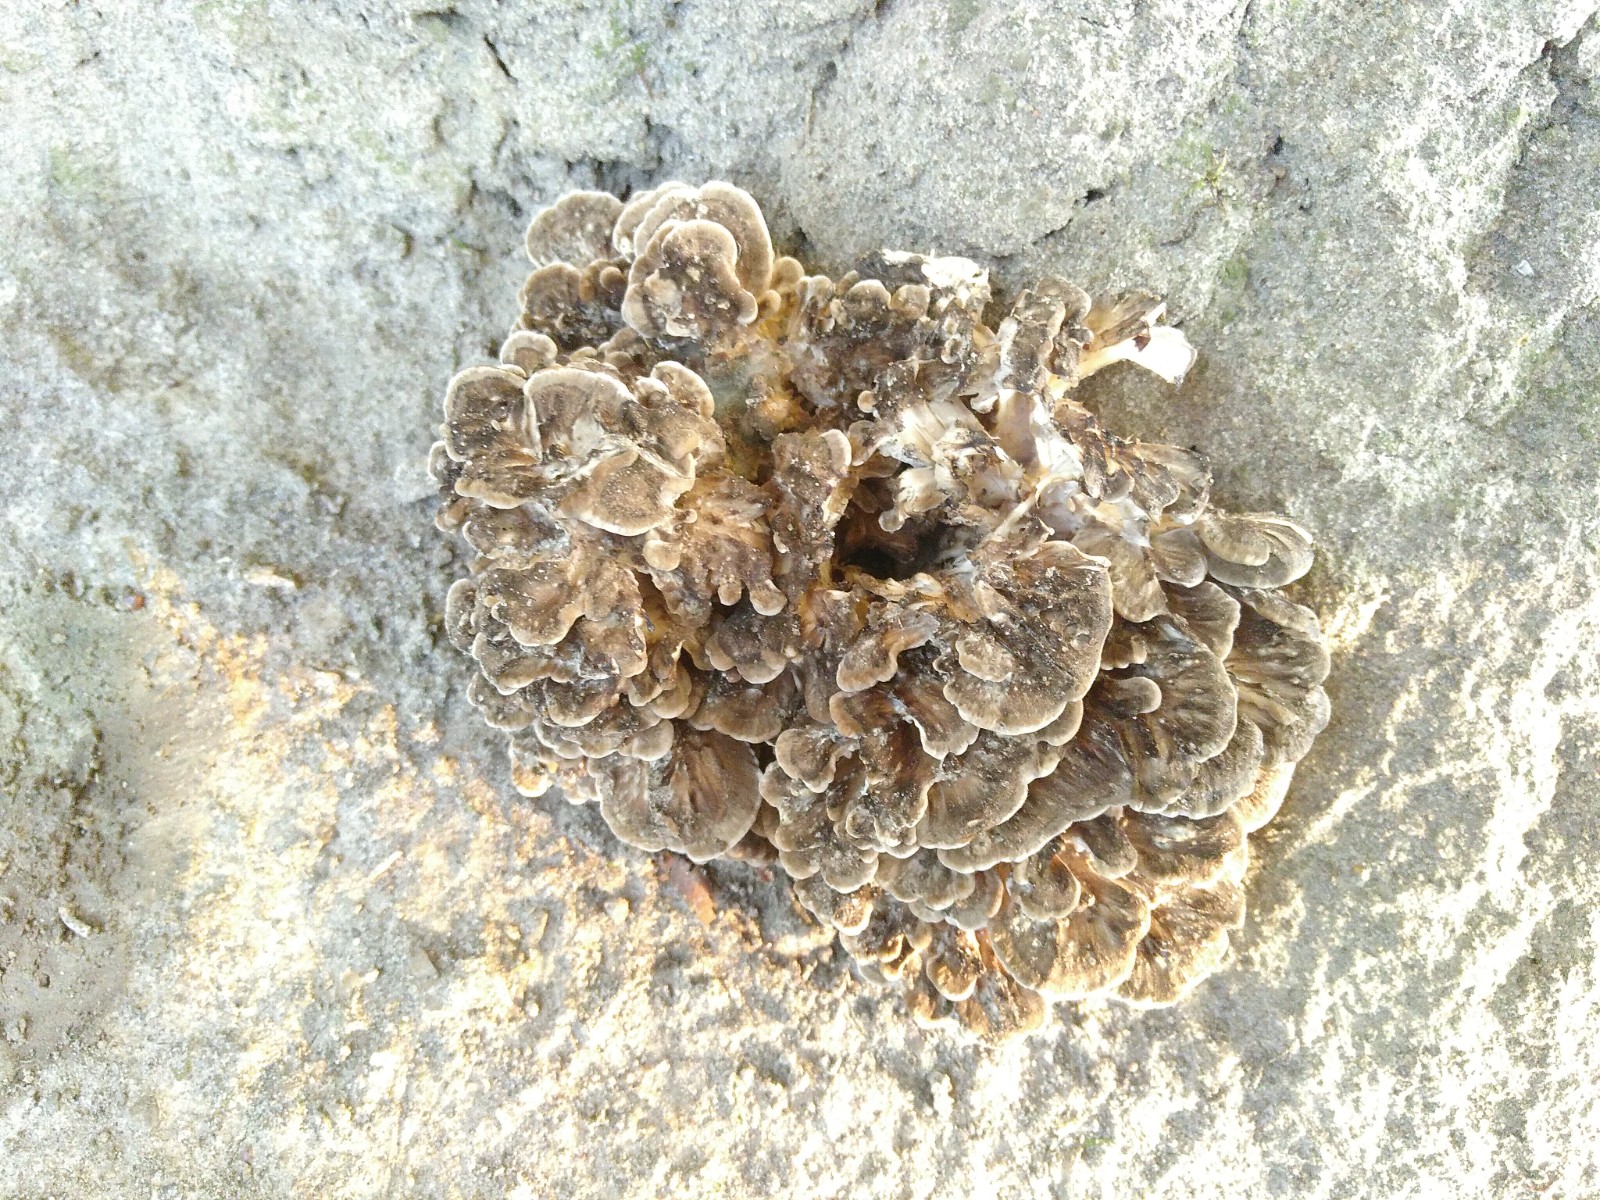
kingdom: Fungi
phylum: Basidiomycota
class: Agaricomycetes
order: Polyporales
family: Grifolaceae
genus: Grifola
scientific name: Grifola frondosa
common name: tueporesvamp
